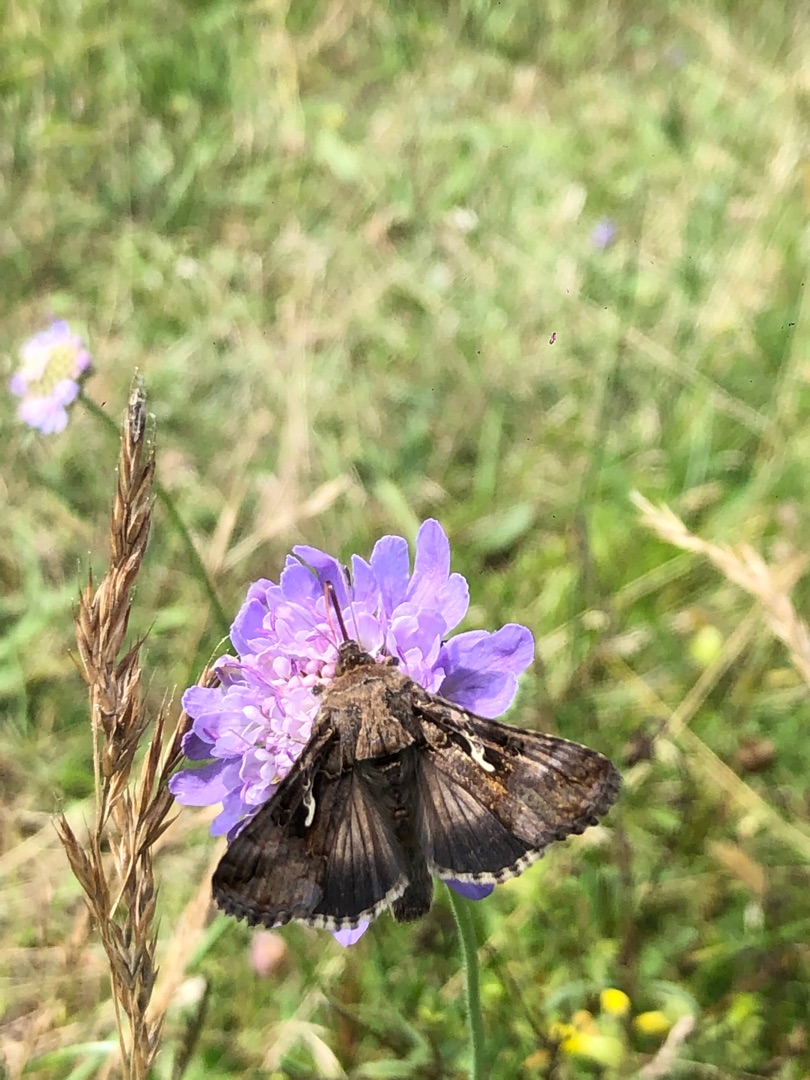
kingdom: Animalia
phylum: Arthropoda
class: Insecta
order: Lepidoptera
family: Noctuidae
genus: Autographa
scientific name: Autographa gamma
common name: Gammaugle
